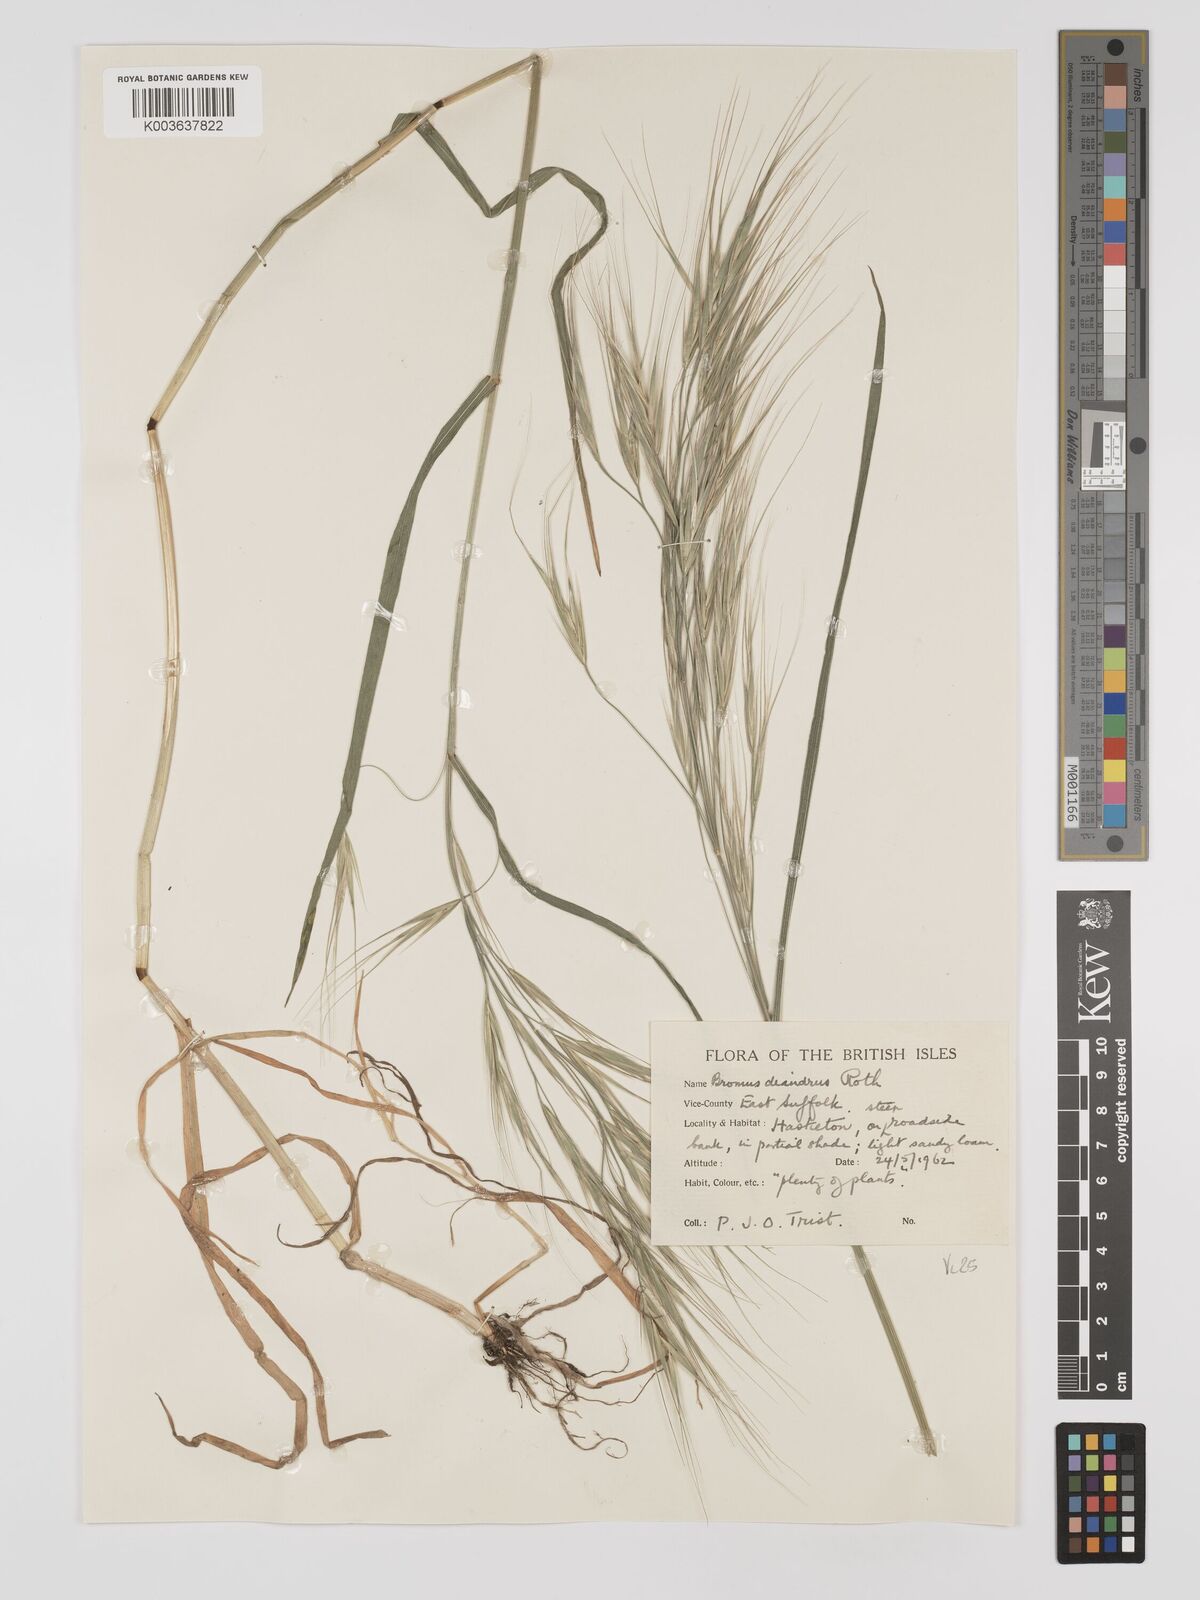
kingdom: Plantae
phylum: Tracheophyta
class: Liliopsida
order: Poales
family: Poaceae
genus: Bromus
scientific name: Bromus
